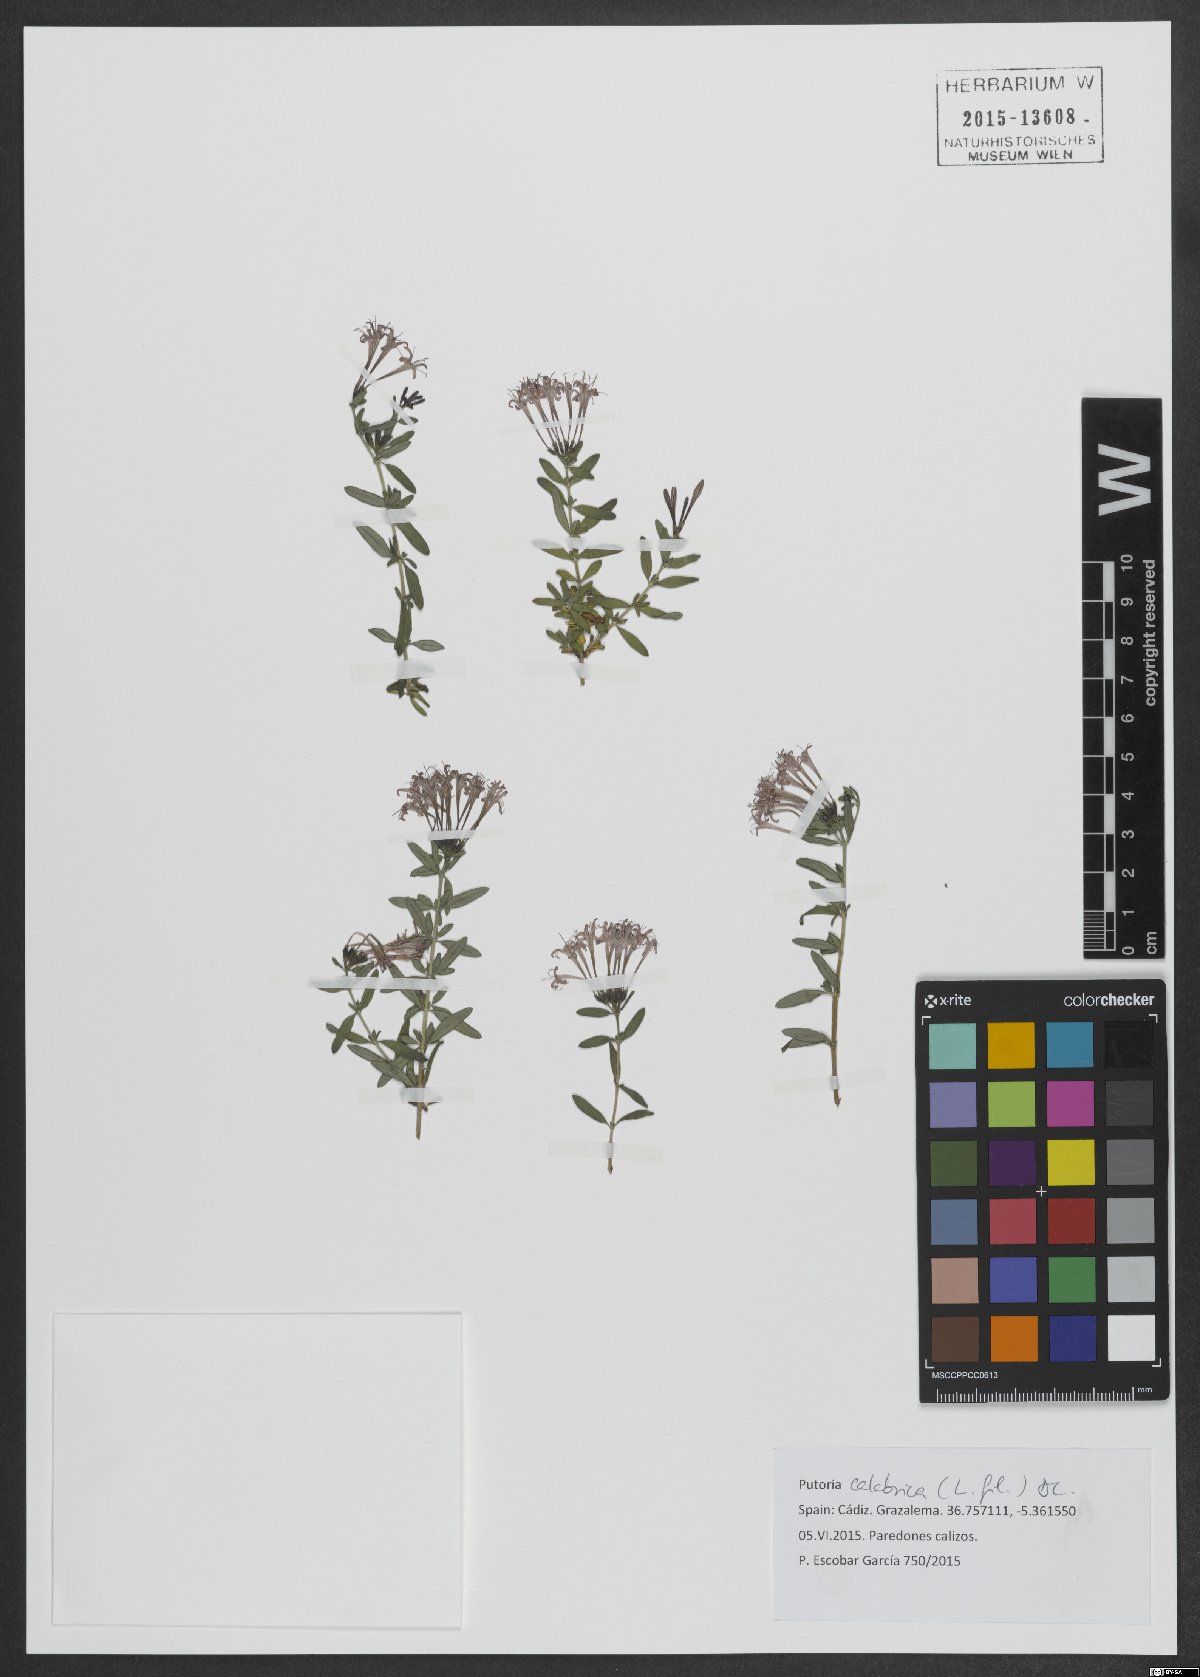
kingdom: Plantae
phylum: Tracheophyta
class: Magnoliopsida
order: Gentianales
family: Rubiaceae
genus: Plocama
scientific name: Plocama calabrica
